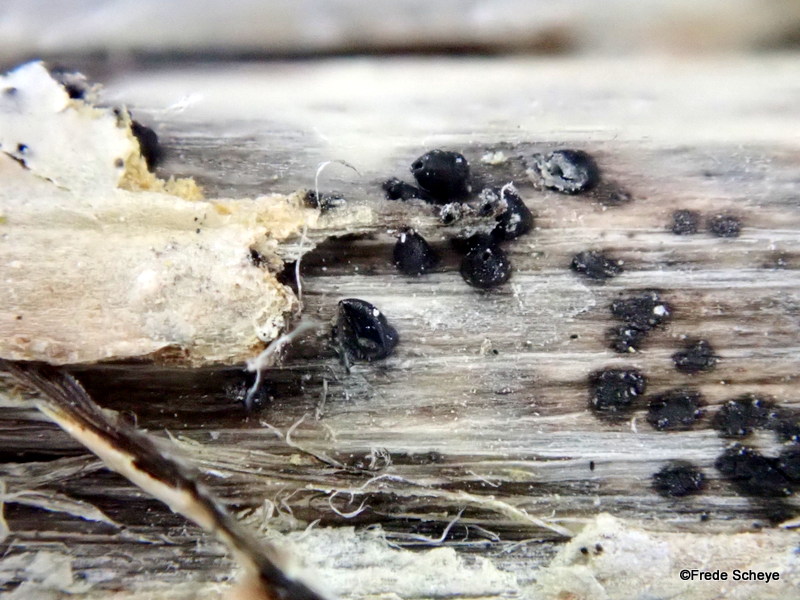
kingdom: Fungi
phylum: Ascomycota
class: Dothideomycetes
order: Pleosporales
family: Leptosphaeriaceae
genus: Leptosphaeria
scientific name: Leptosphaeria acuta
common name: spids kulkegle
